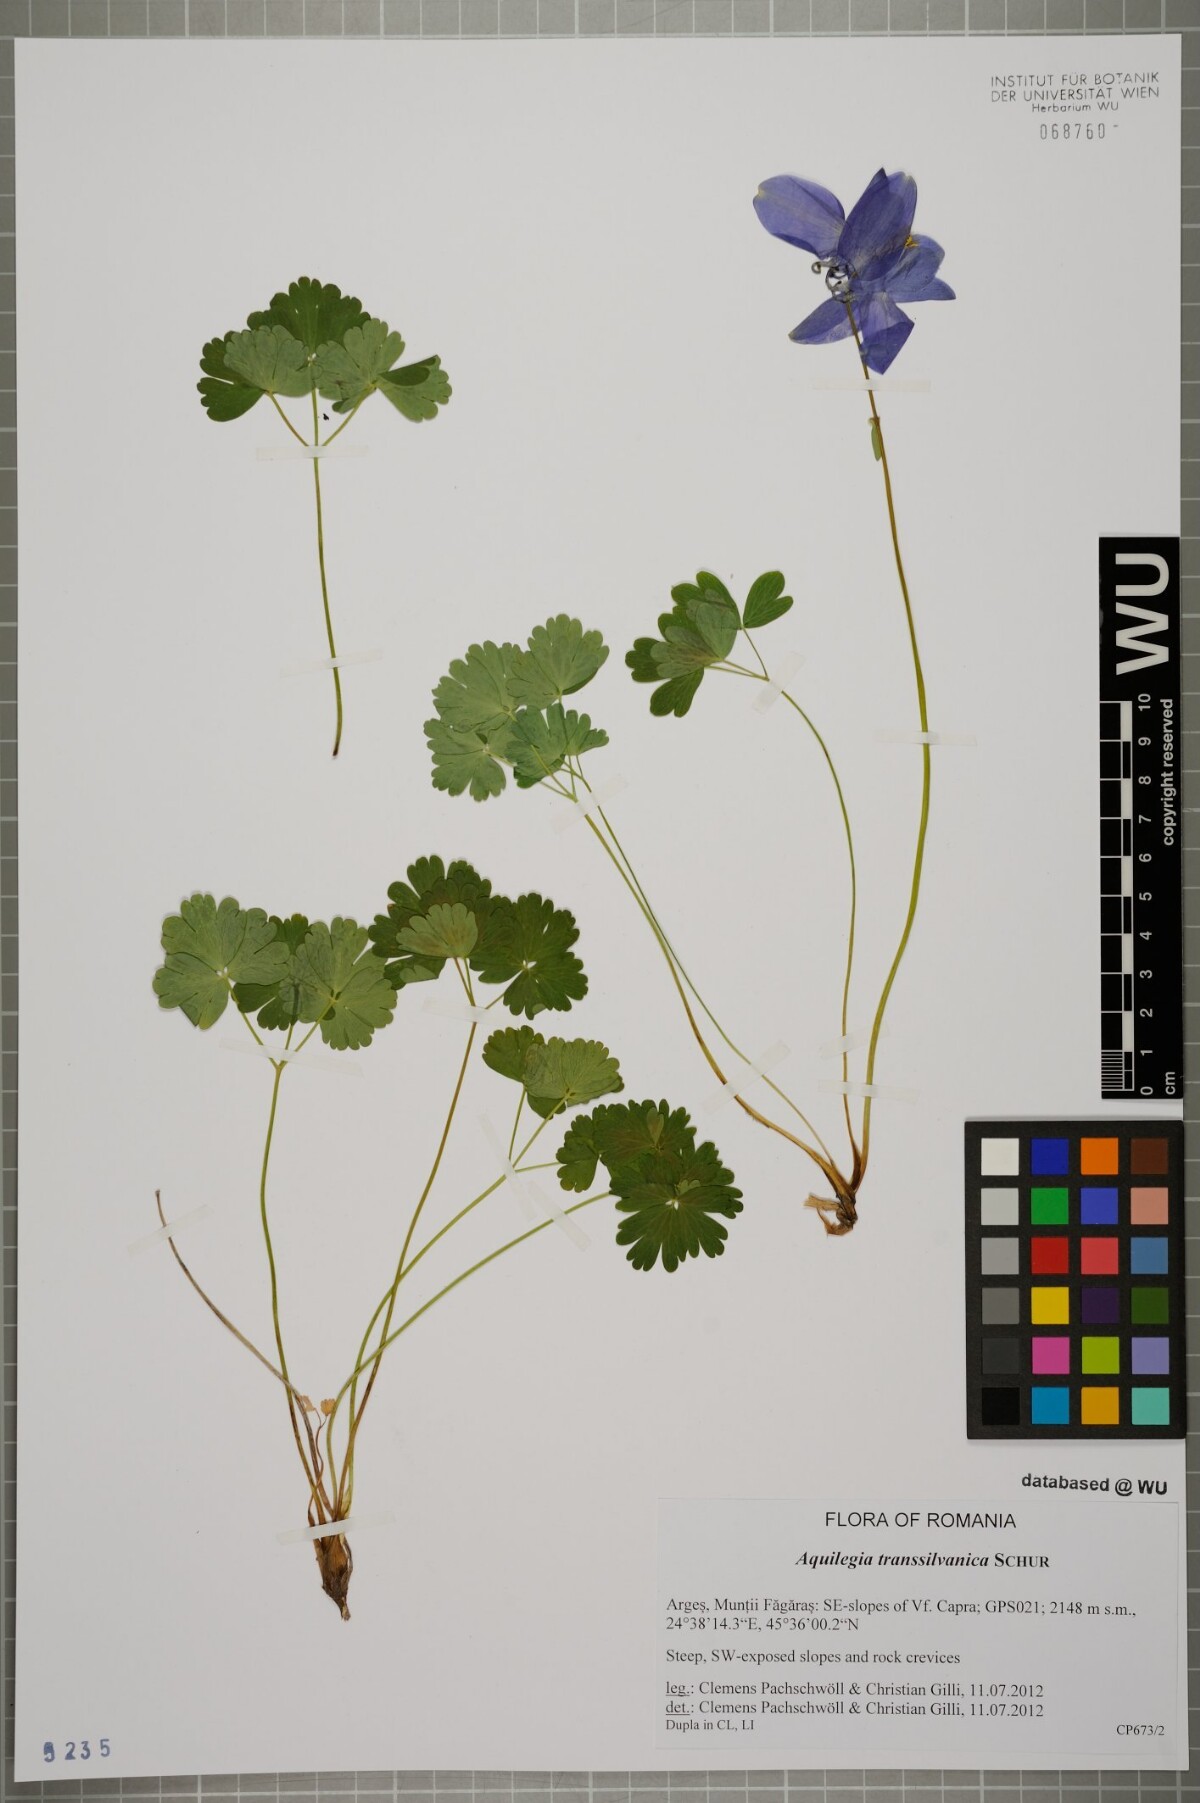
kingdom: Plantae
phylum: Tracheophyta
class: Magnoliopsida
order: Ranunculales
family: Ranunculaceae
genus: Aquilegia
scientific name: Aquilegia transsilvanica
